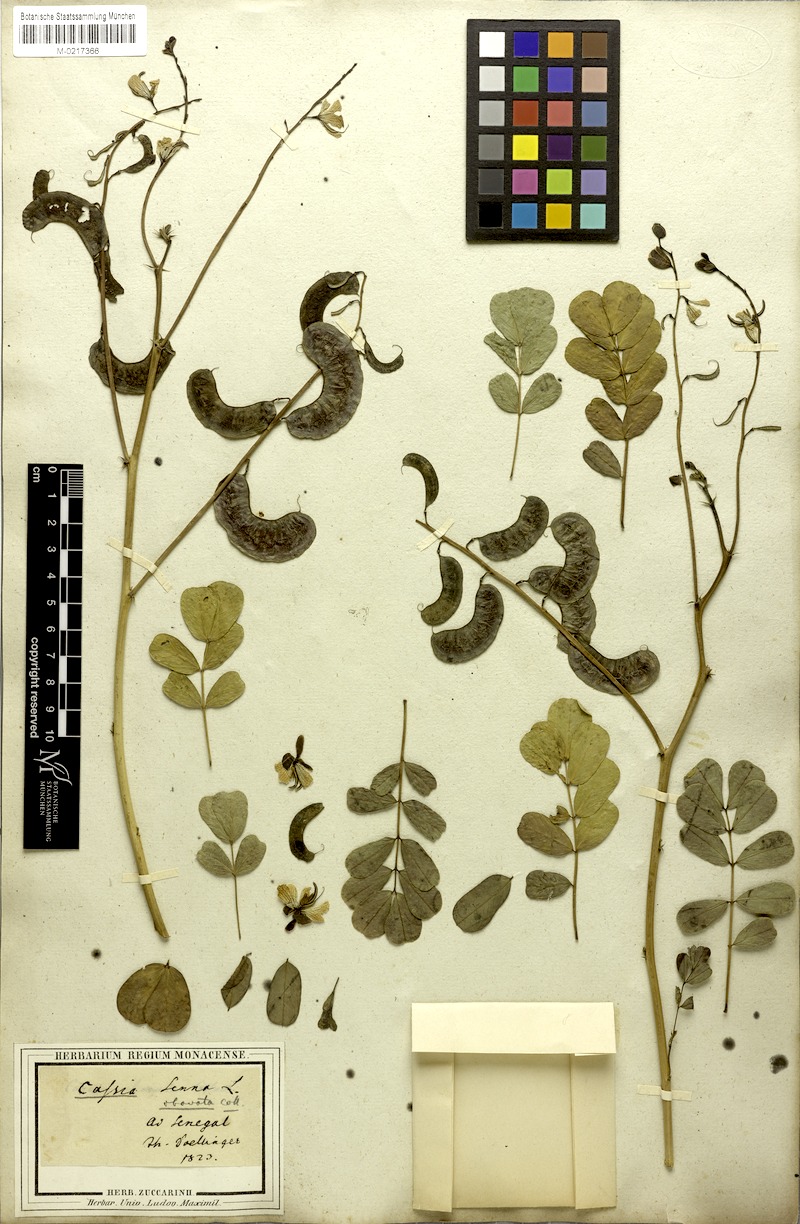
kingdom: Plantae
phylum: Tracheophyta
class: Magnoliopsida
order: Fabales
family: Fabaceae
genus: Senna
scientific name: Senna italica
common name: Port royal senna
